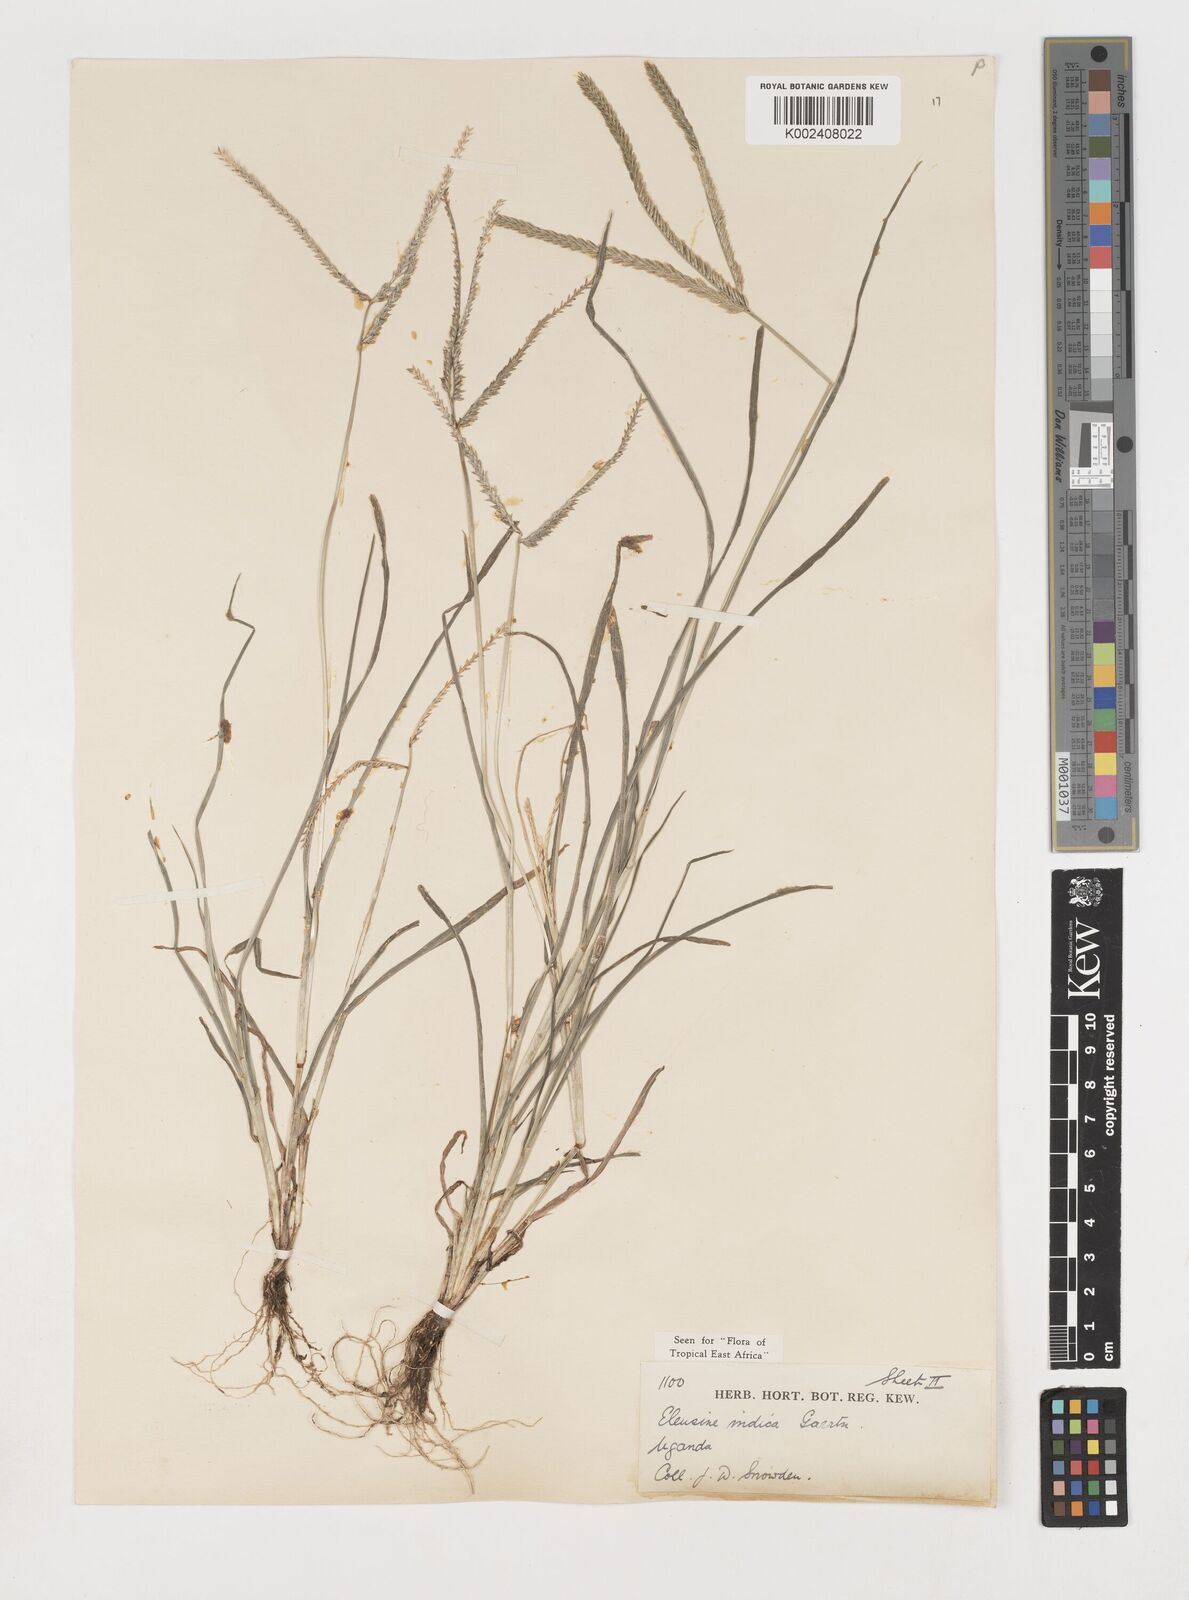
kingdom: Plantae
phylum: Tracheophyta
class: Liliopsida
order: Poales
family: Poaceae
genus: Eleusine
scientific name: Eleusine indica
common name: Yard-grass
